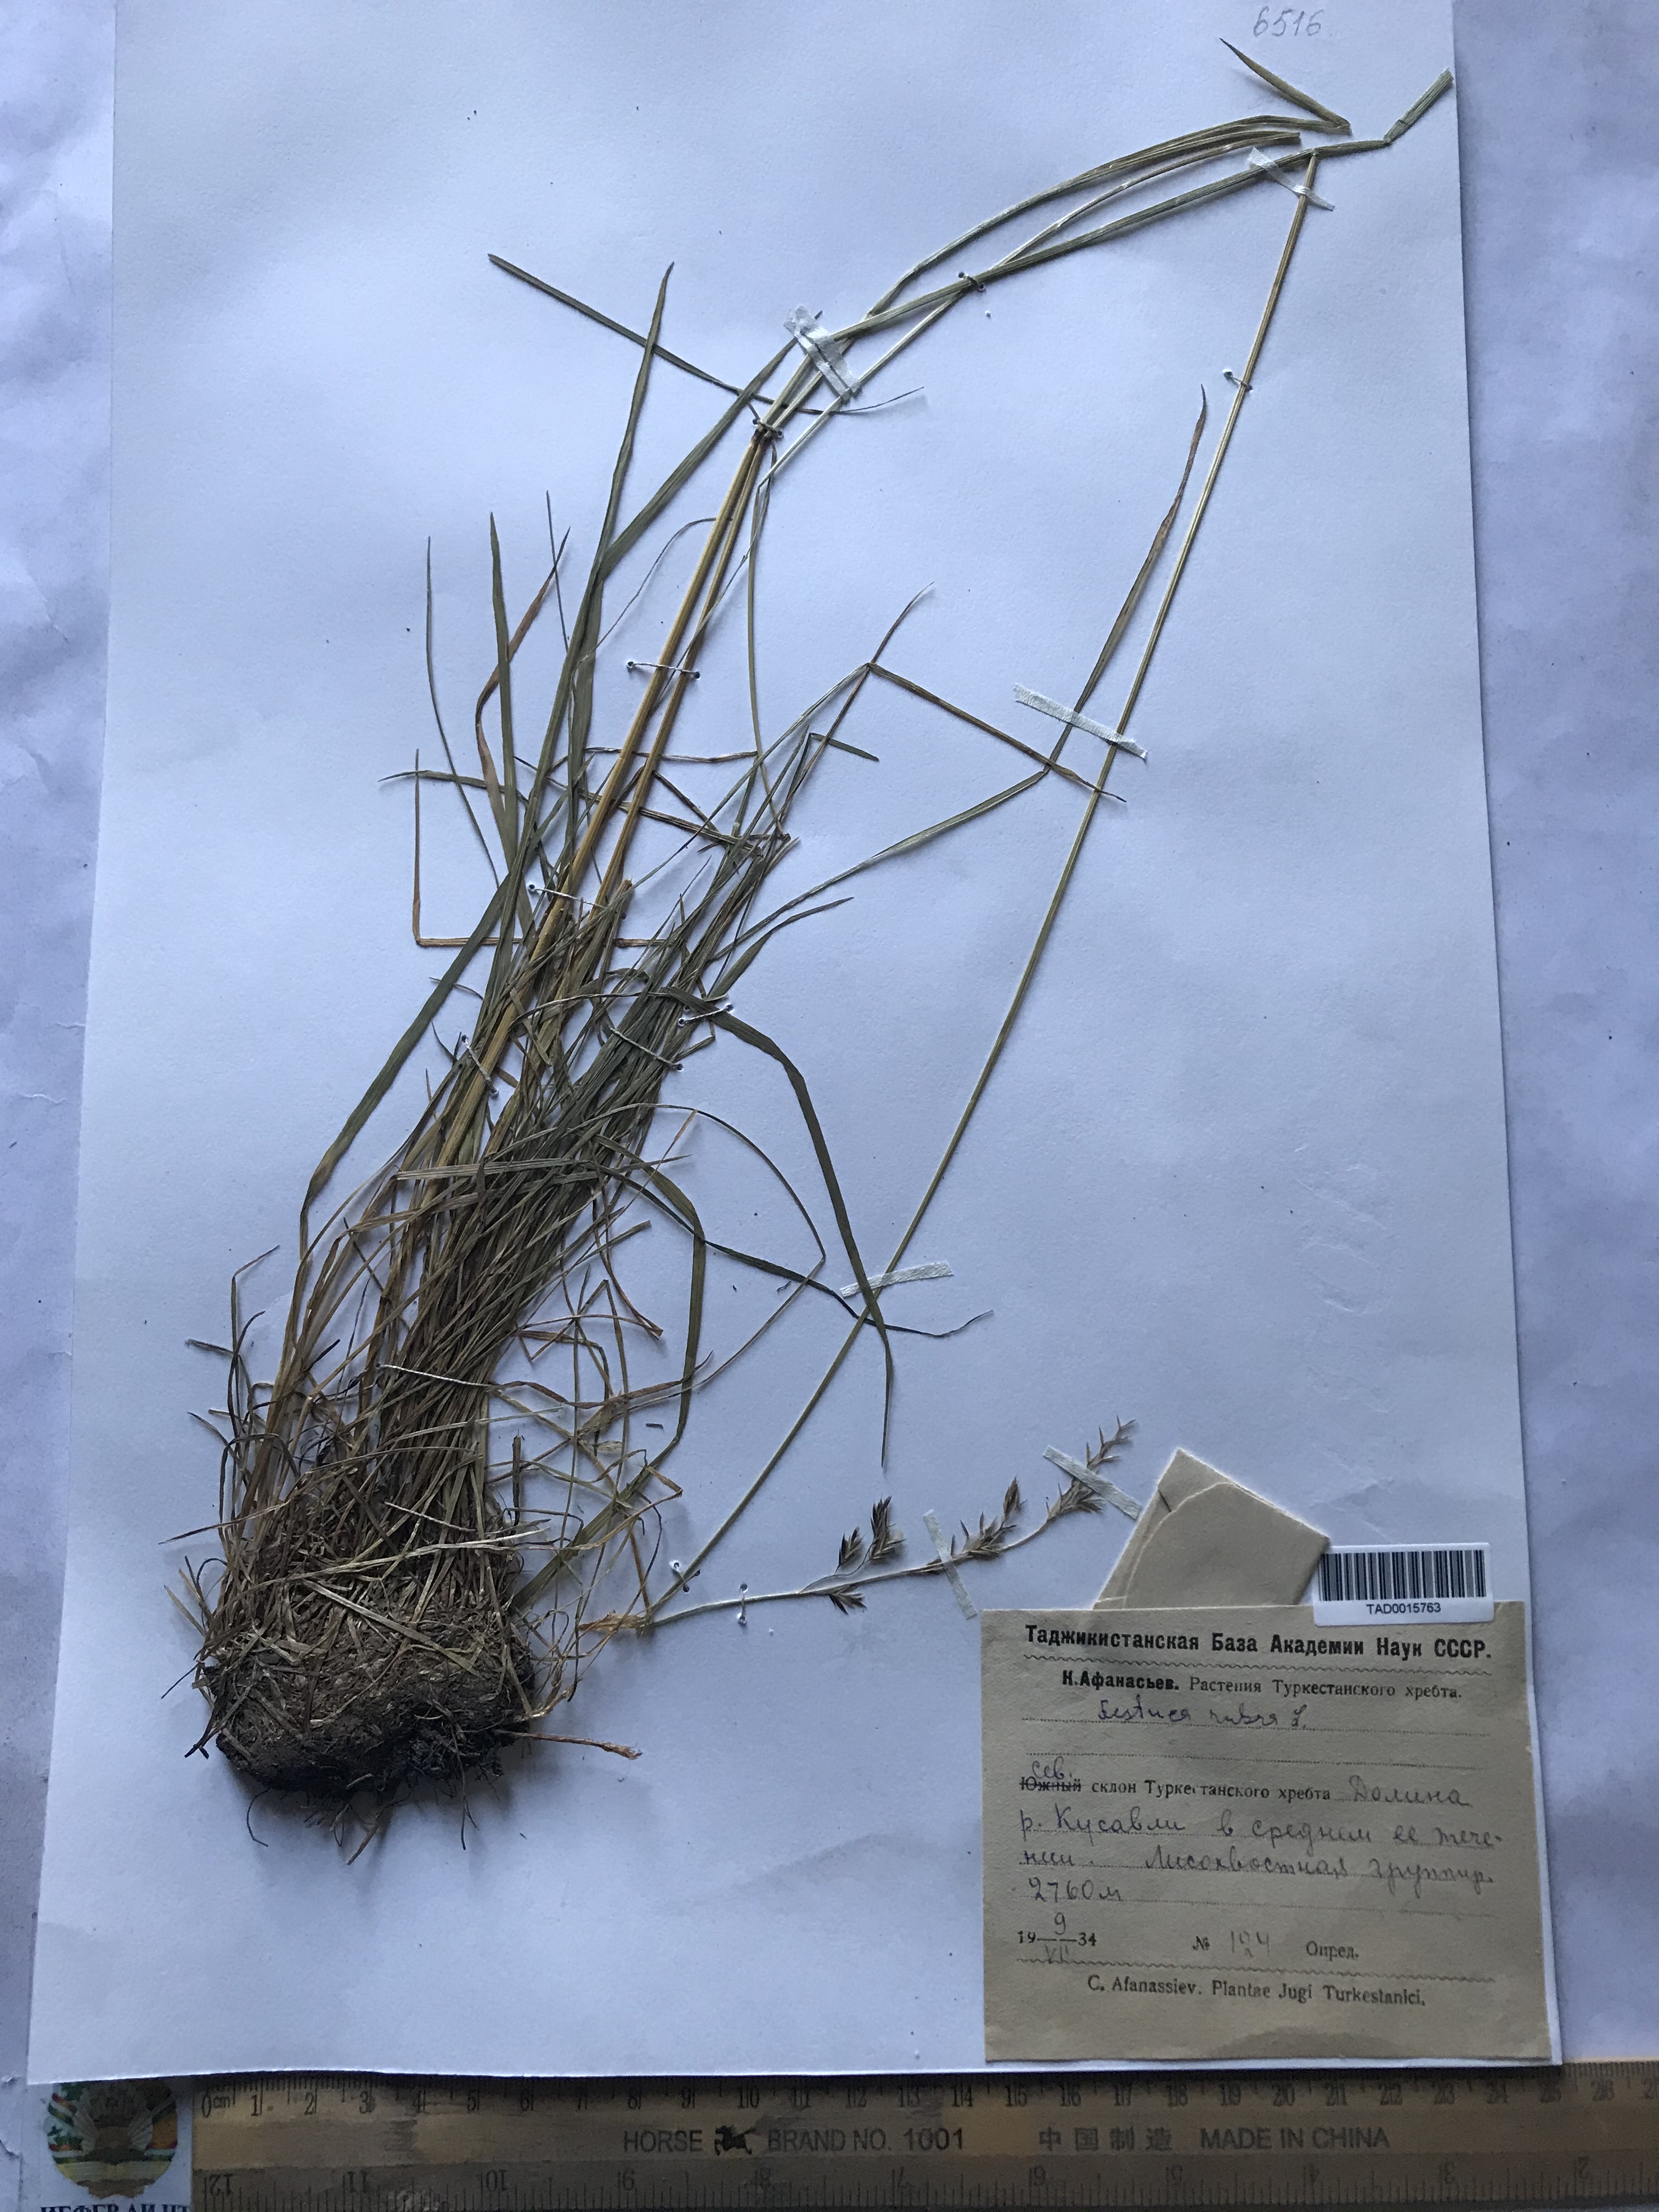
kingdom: Plantae
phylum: Tracheophyta
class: Liliopsida
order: Poales
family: Poaceae
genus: Festuca
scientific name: Festuca rubra
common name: Red fescue
